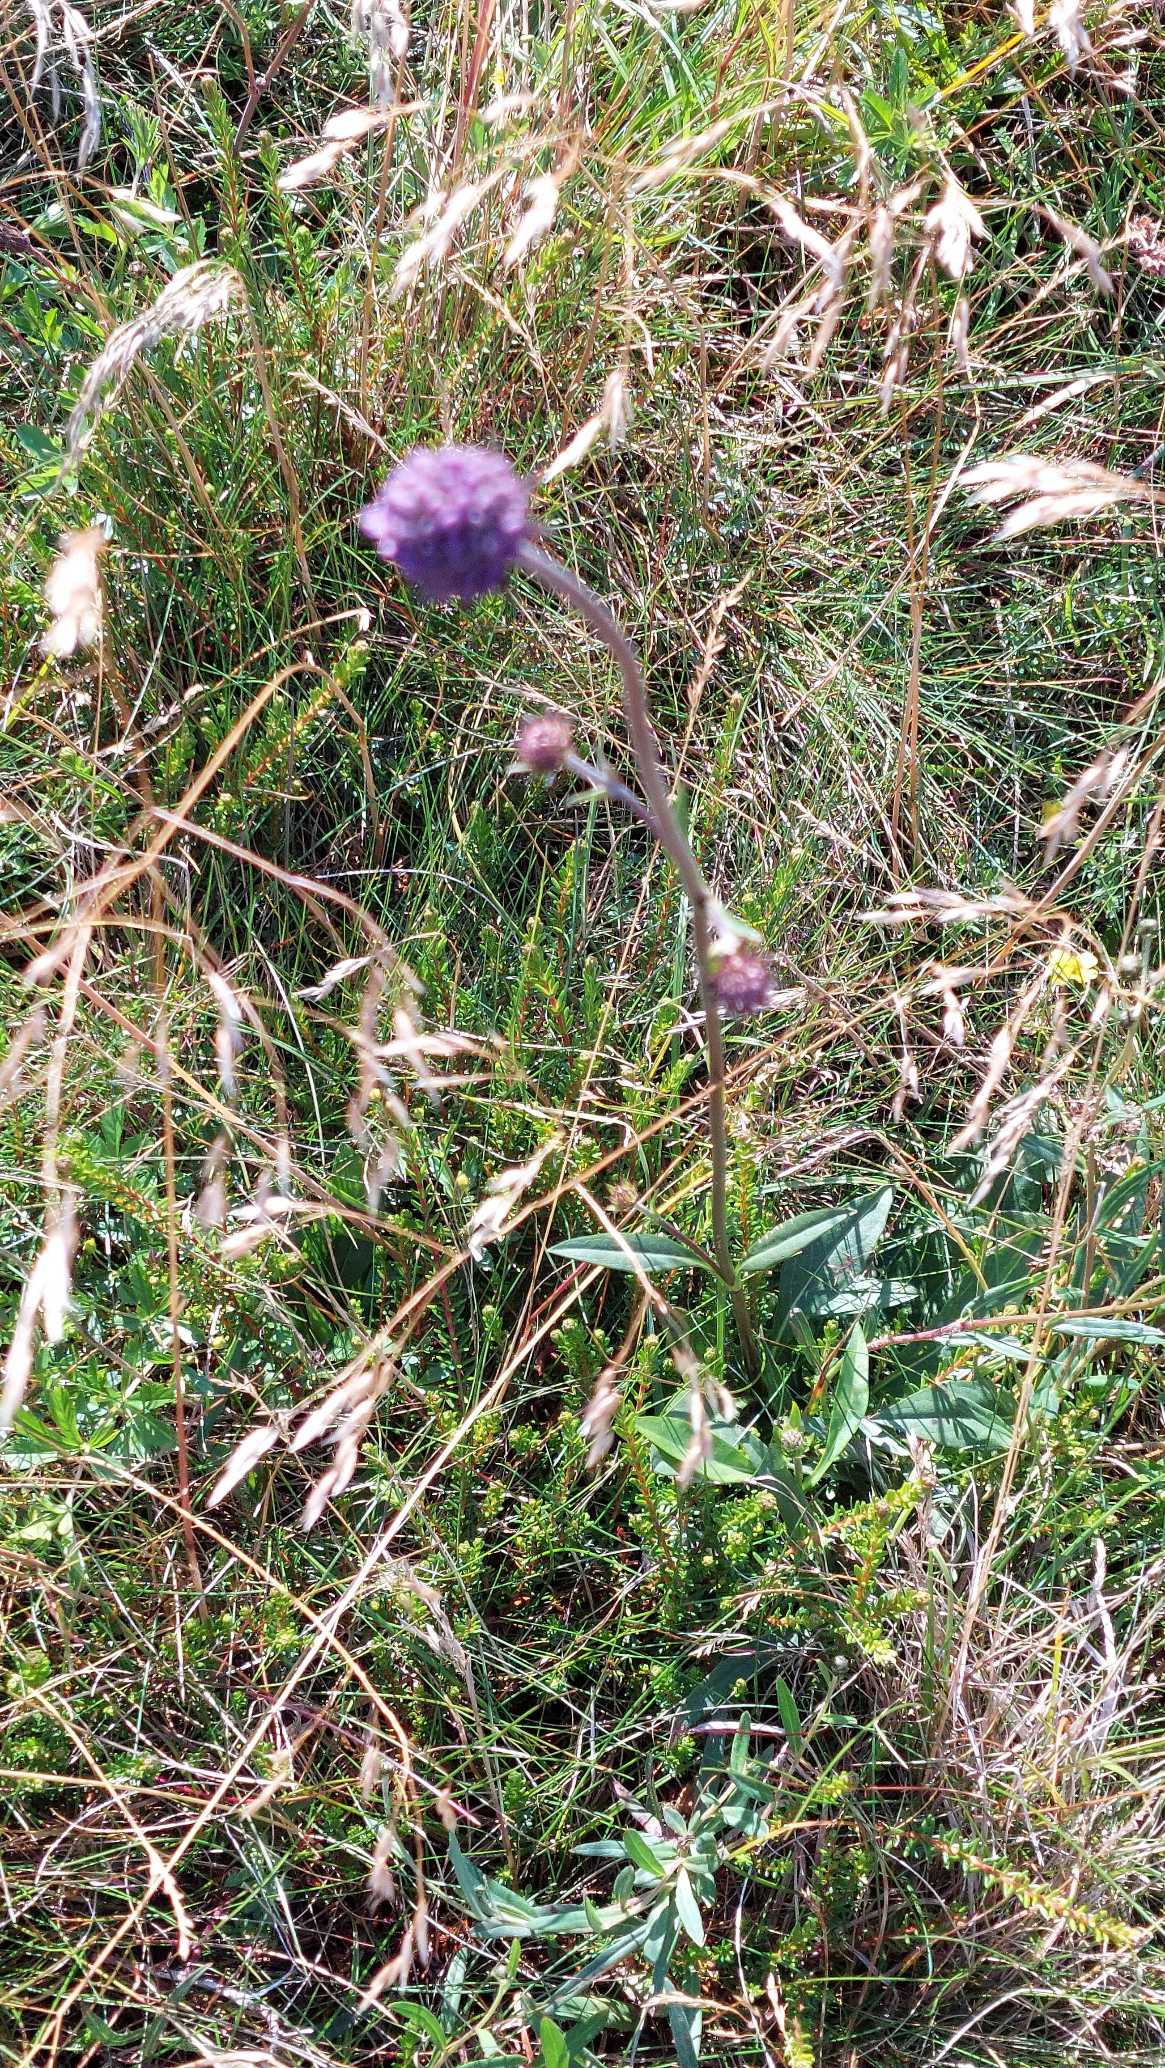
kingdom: Plantae
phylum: Tracheophyta
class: Magnoliopsida
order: Dipsacales
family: Caprifoliaceae
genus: Succisa
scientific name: Succisa pratensis
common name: Djævelsbid
